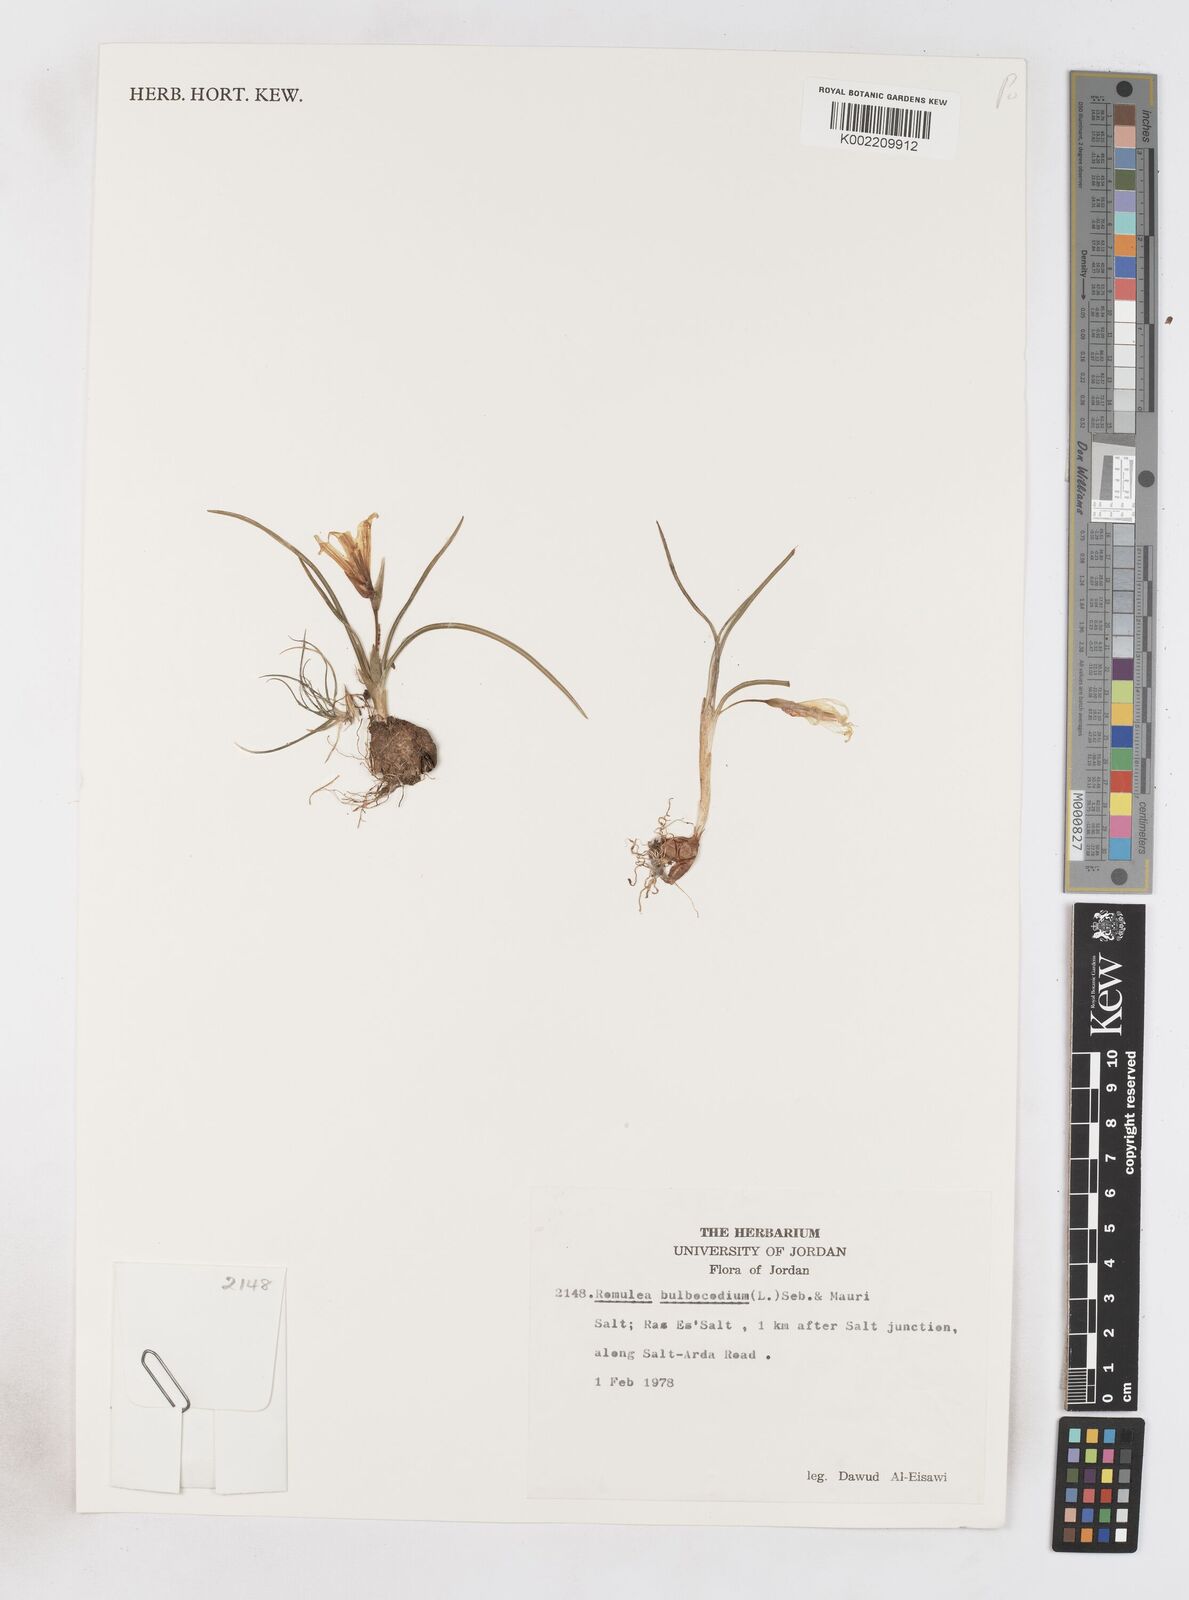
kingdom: Plantae
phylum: Tracheophyta
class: Liliopsida
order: Asparagales
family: Iridaceae
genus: Romulea
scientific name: Romulea bulbocodium
